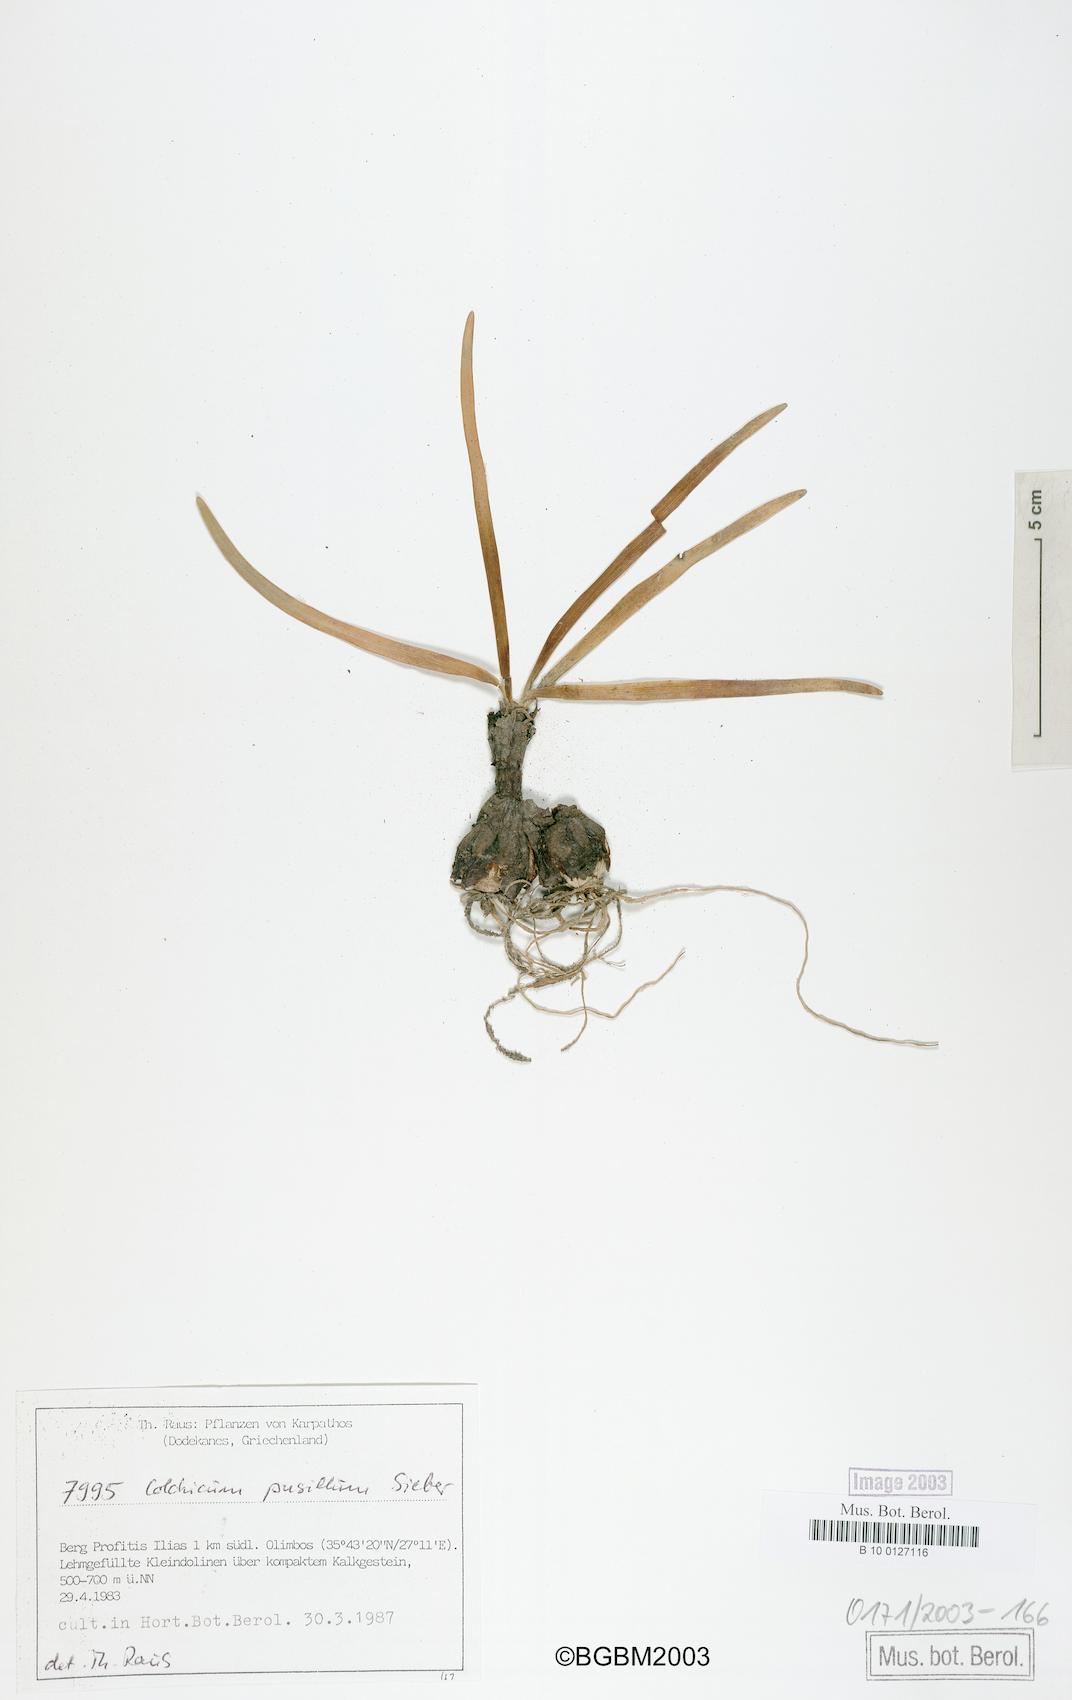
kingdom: Plantae
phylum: Tracheophyta
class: Liliopsida
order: Liliales
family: Colchicaceae
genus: Colchicum
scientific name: Colchicum pusillum
